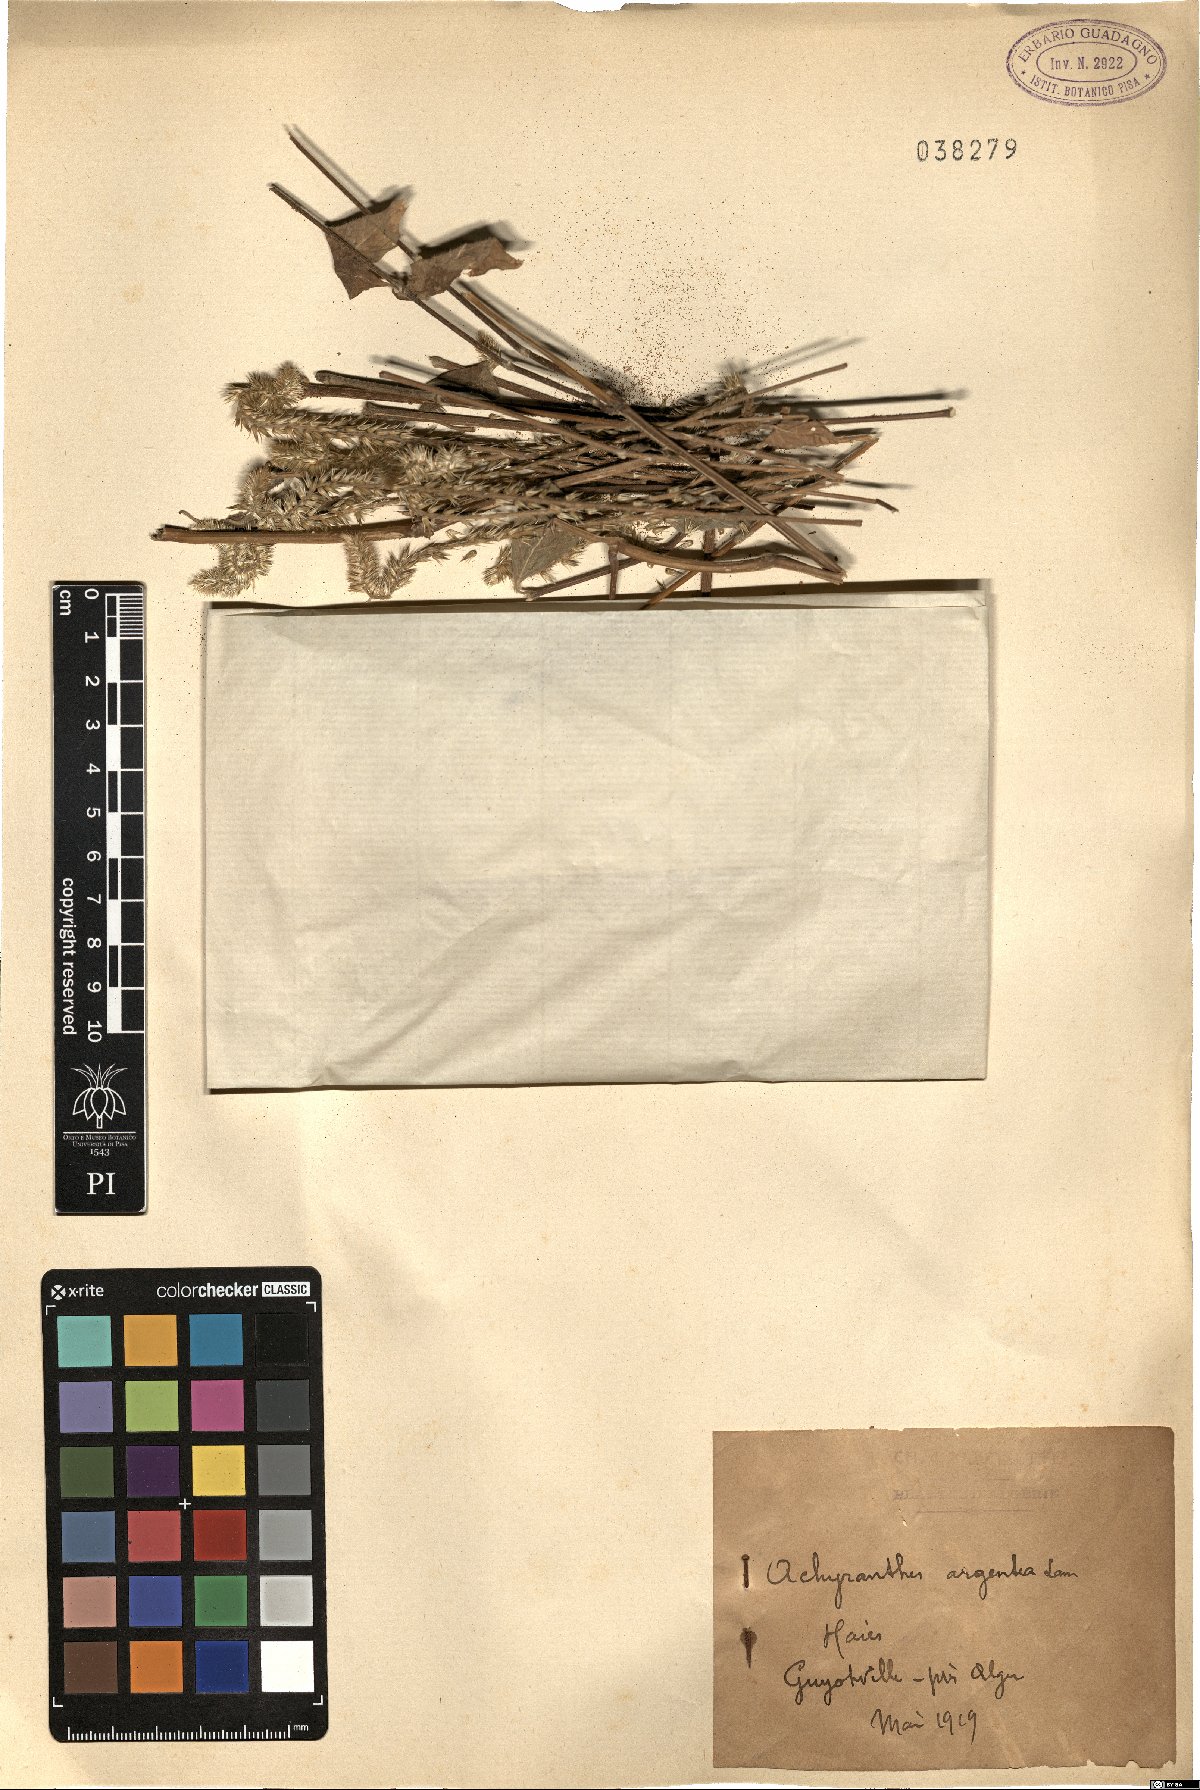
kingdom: Plantae
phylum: Tracheophyta
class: Magnoliopsida
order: Caryophyllales
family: Amaranthaceae
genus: Achyranthes
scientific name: Achyranthes sicula
